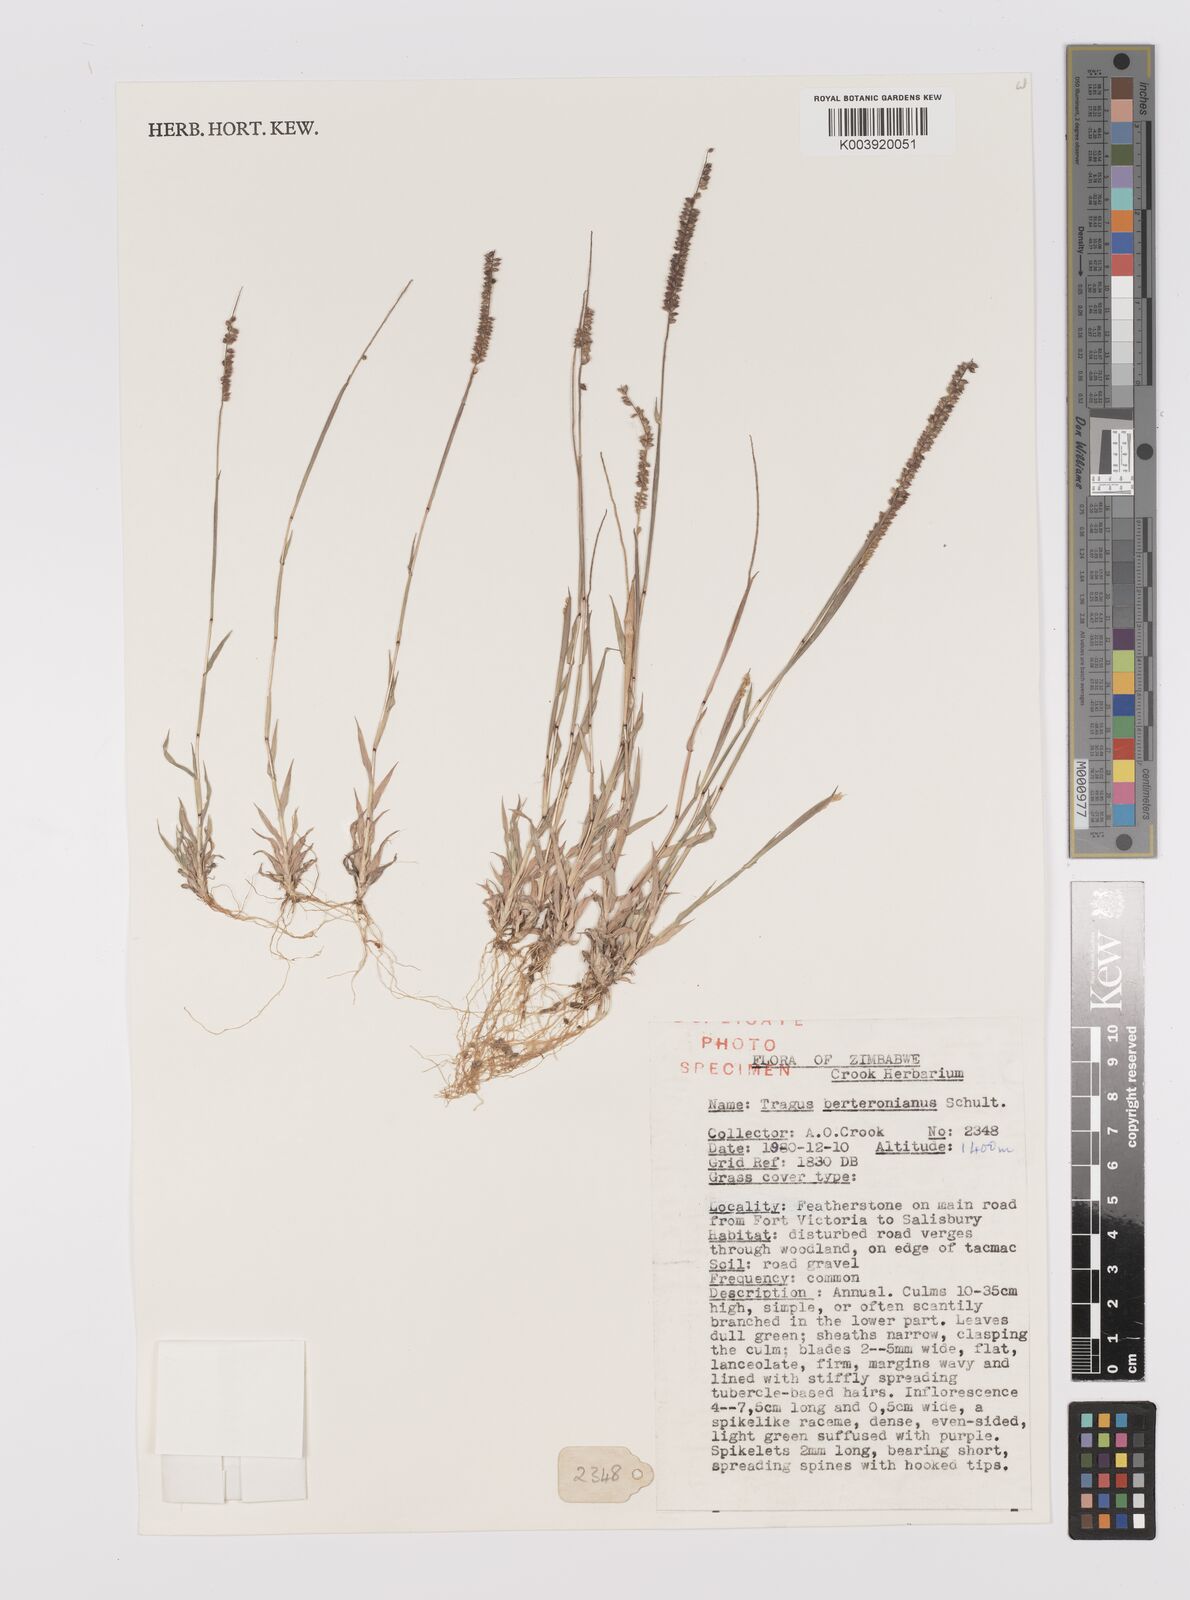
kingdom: Plantae
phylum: Tracheophyta
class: Liliopsida
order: Poales
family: Poaceae
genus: Tragus
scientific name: Tragus berteronianus
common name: African bur-grass
